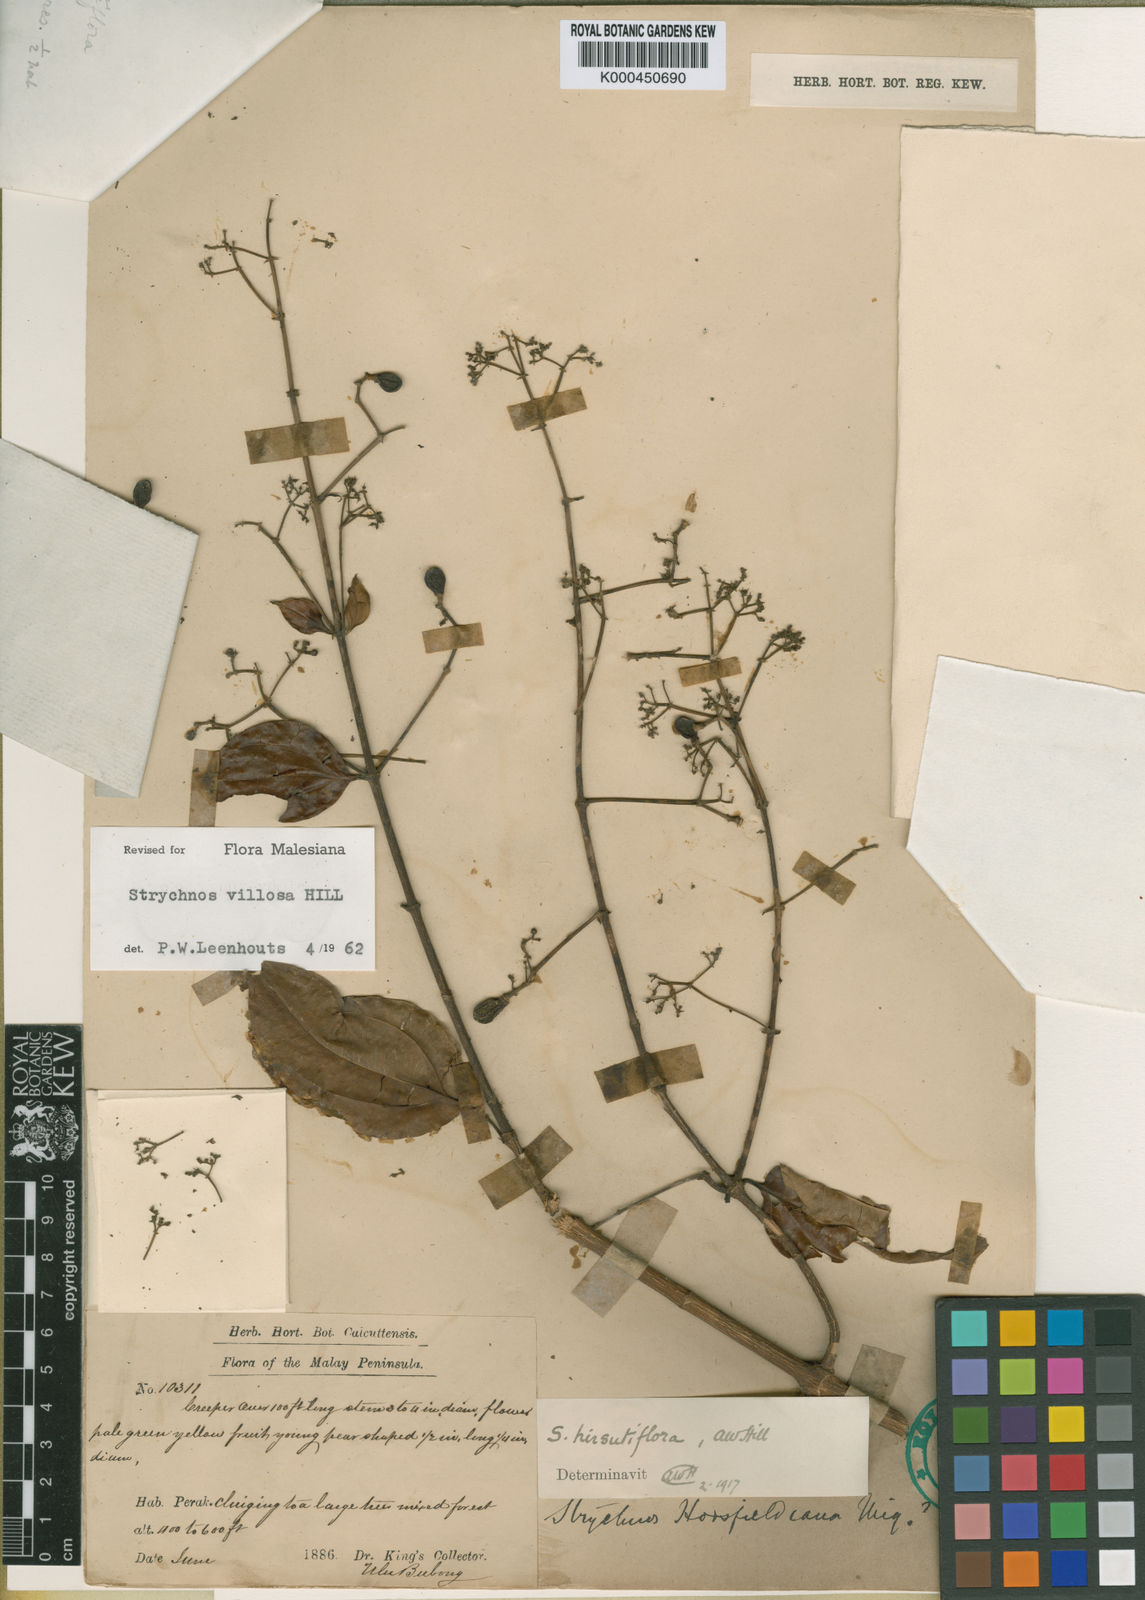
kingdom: Plantae
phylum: Tracheophyta
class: Magnoliopsida
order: Gentianales
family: Loganiaceae
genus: Strychnos
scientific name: Strychnos villosa
